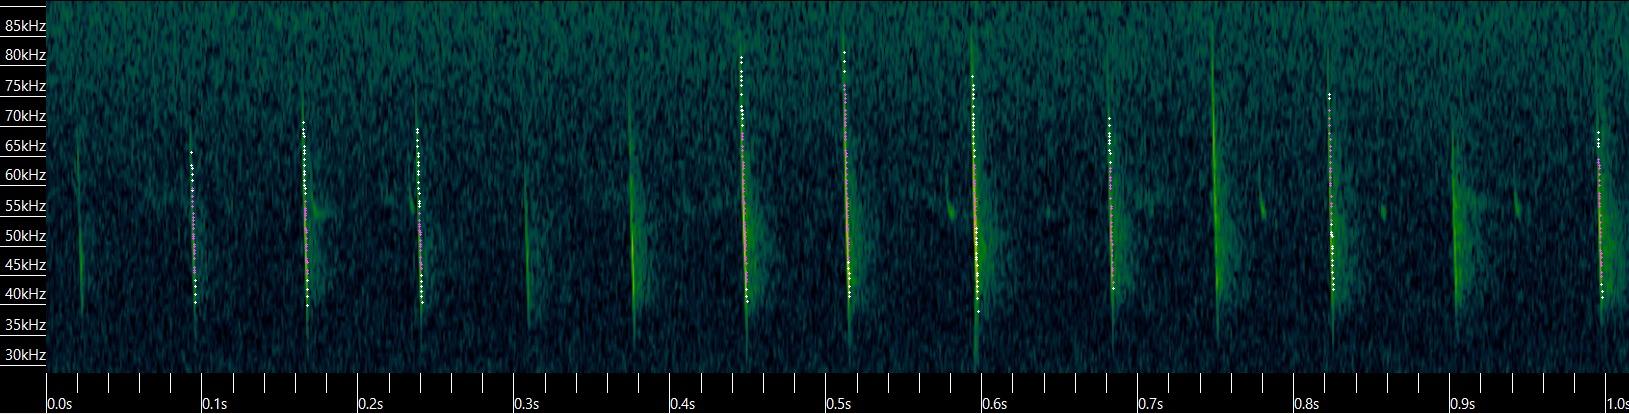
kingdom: Animalia
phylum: Chordata
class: Mammalia
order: Chiroptera
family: Vespertilionidae
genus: Myotis
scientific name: Myotis daubentonii
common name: Vandflagermus
